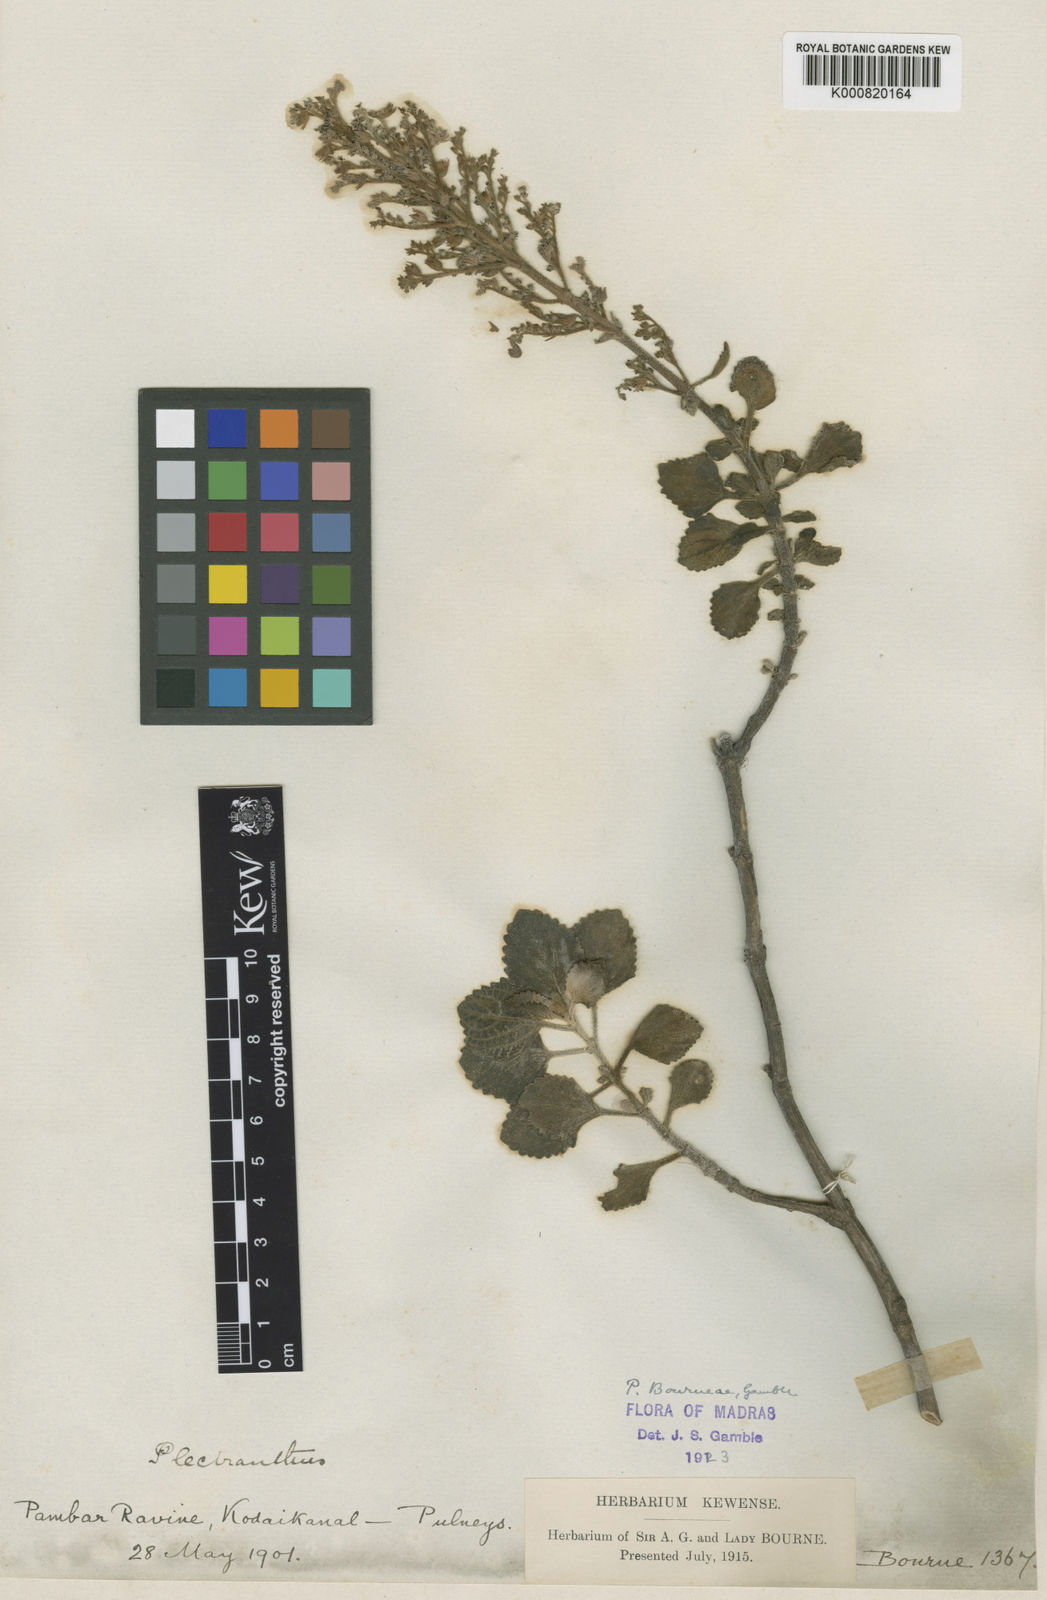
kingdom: Plantae
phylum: Tracheophyta
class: Magnoliopsida
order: Lamiales
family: Lamiaceae
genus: Coleus
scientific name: Coleus bourneae
